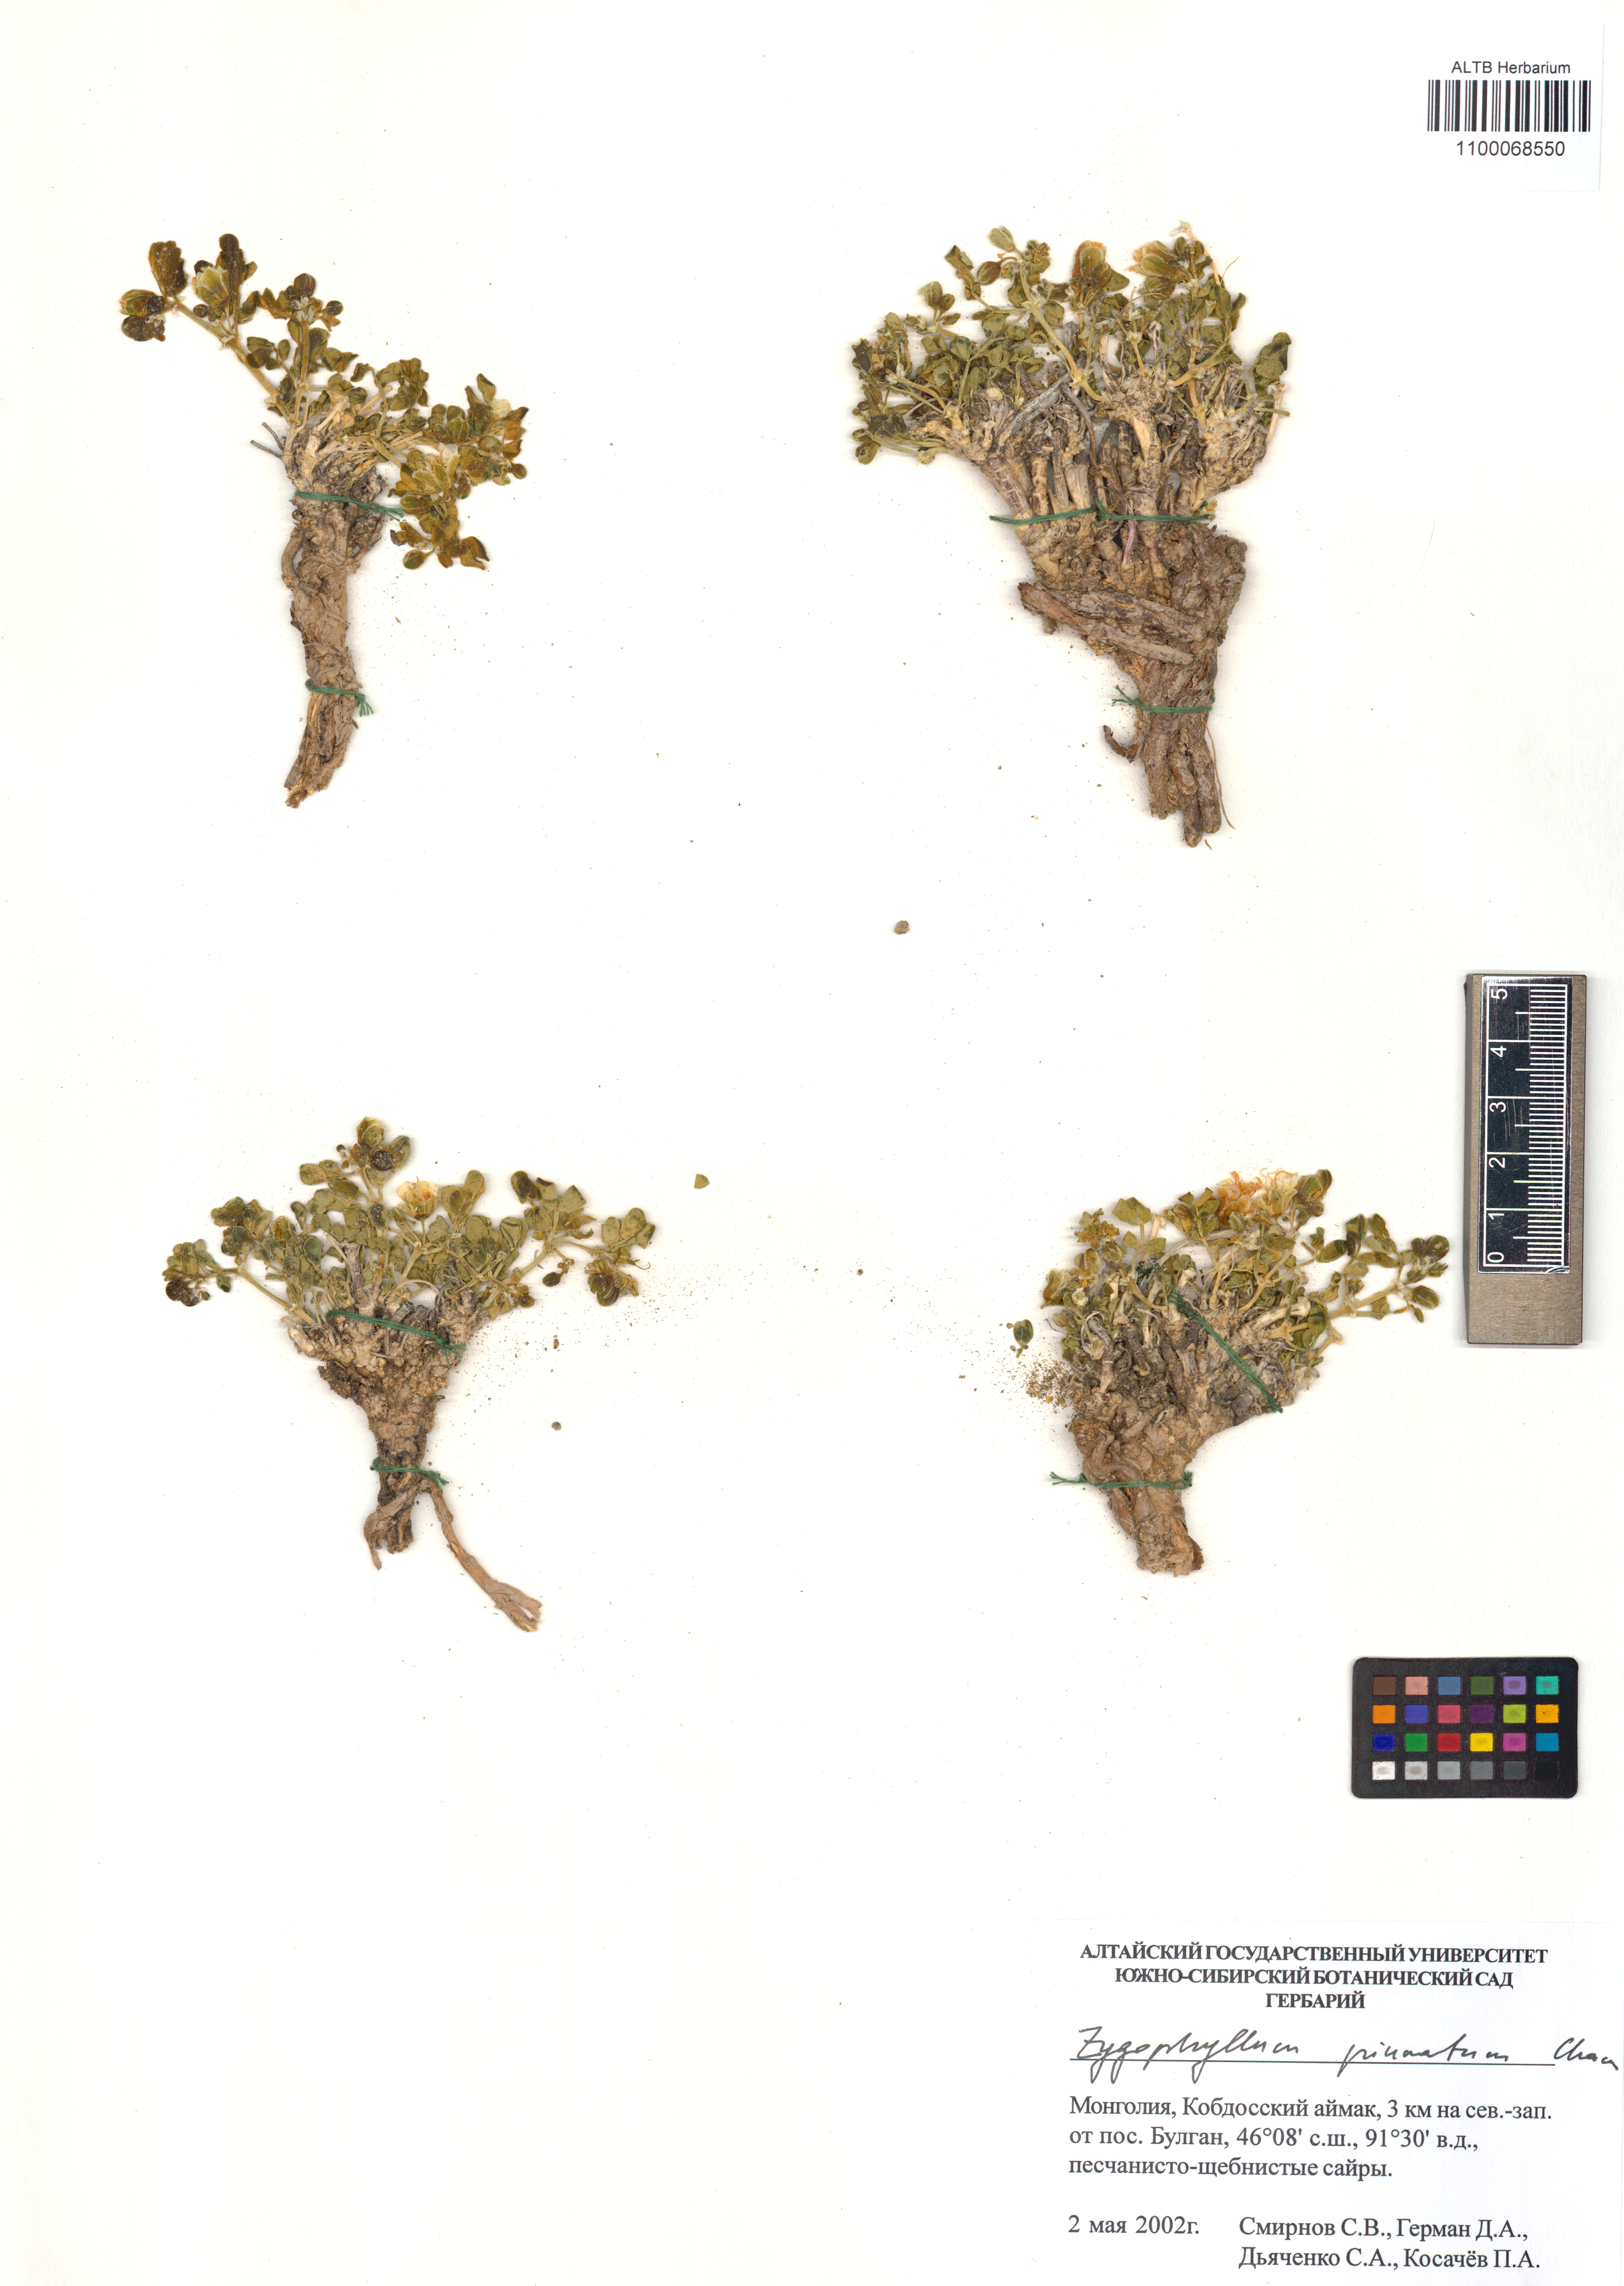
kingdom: Plantae
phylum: Tracheophyta
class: Magnoliopsida
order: Zygophyllales
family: Zygophyllaceae
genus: Zygophyllum
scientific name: Zygophyllum pinnatum
